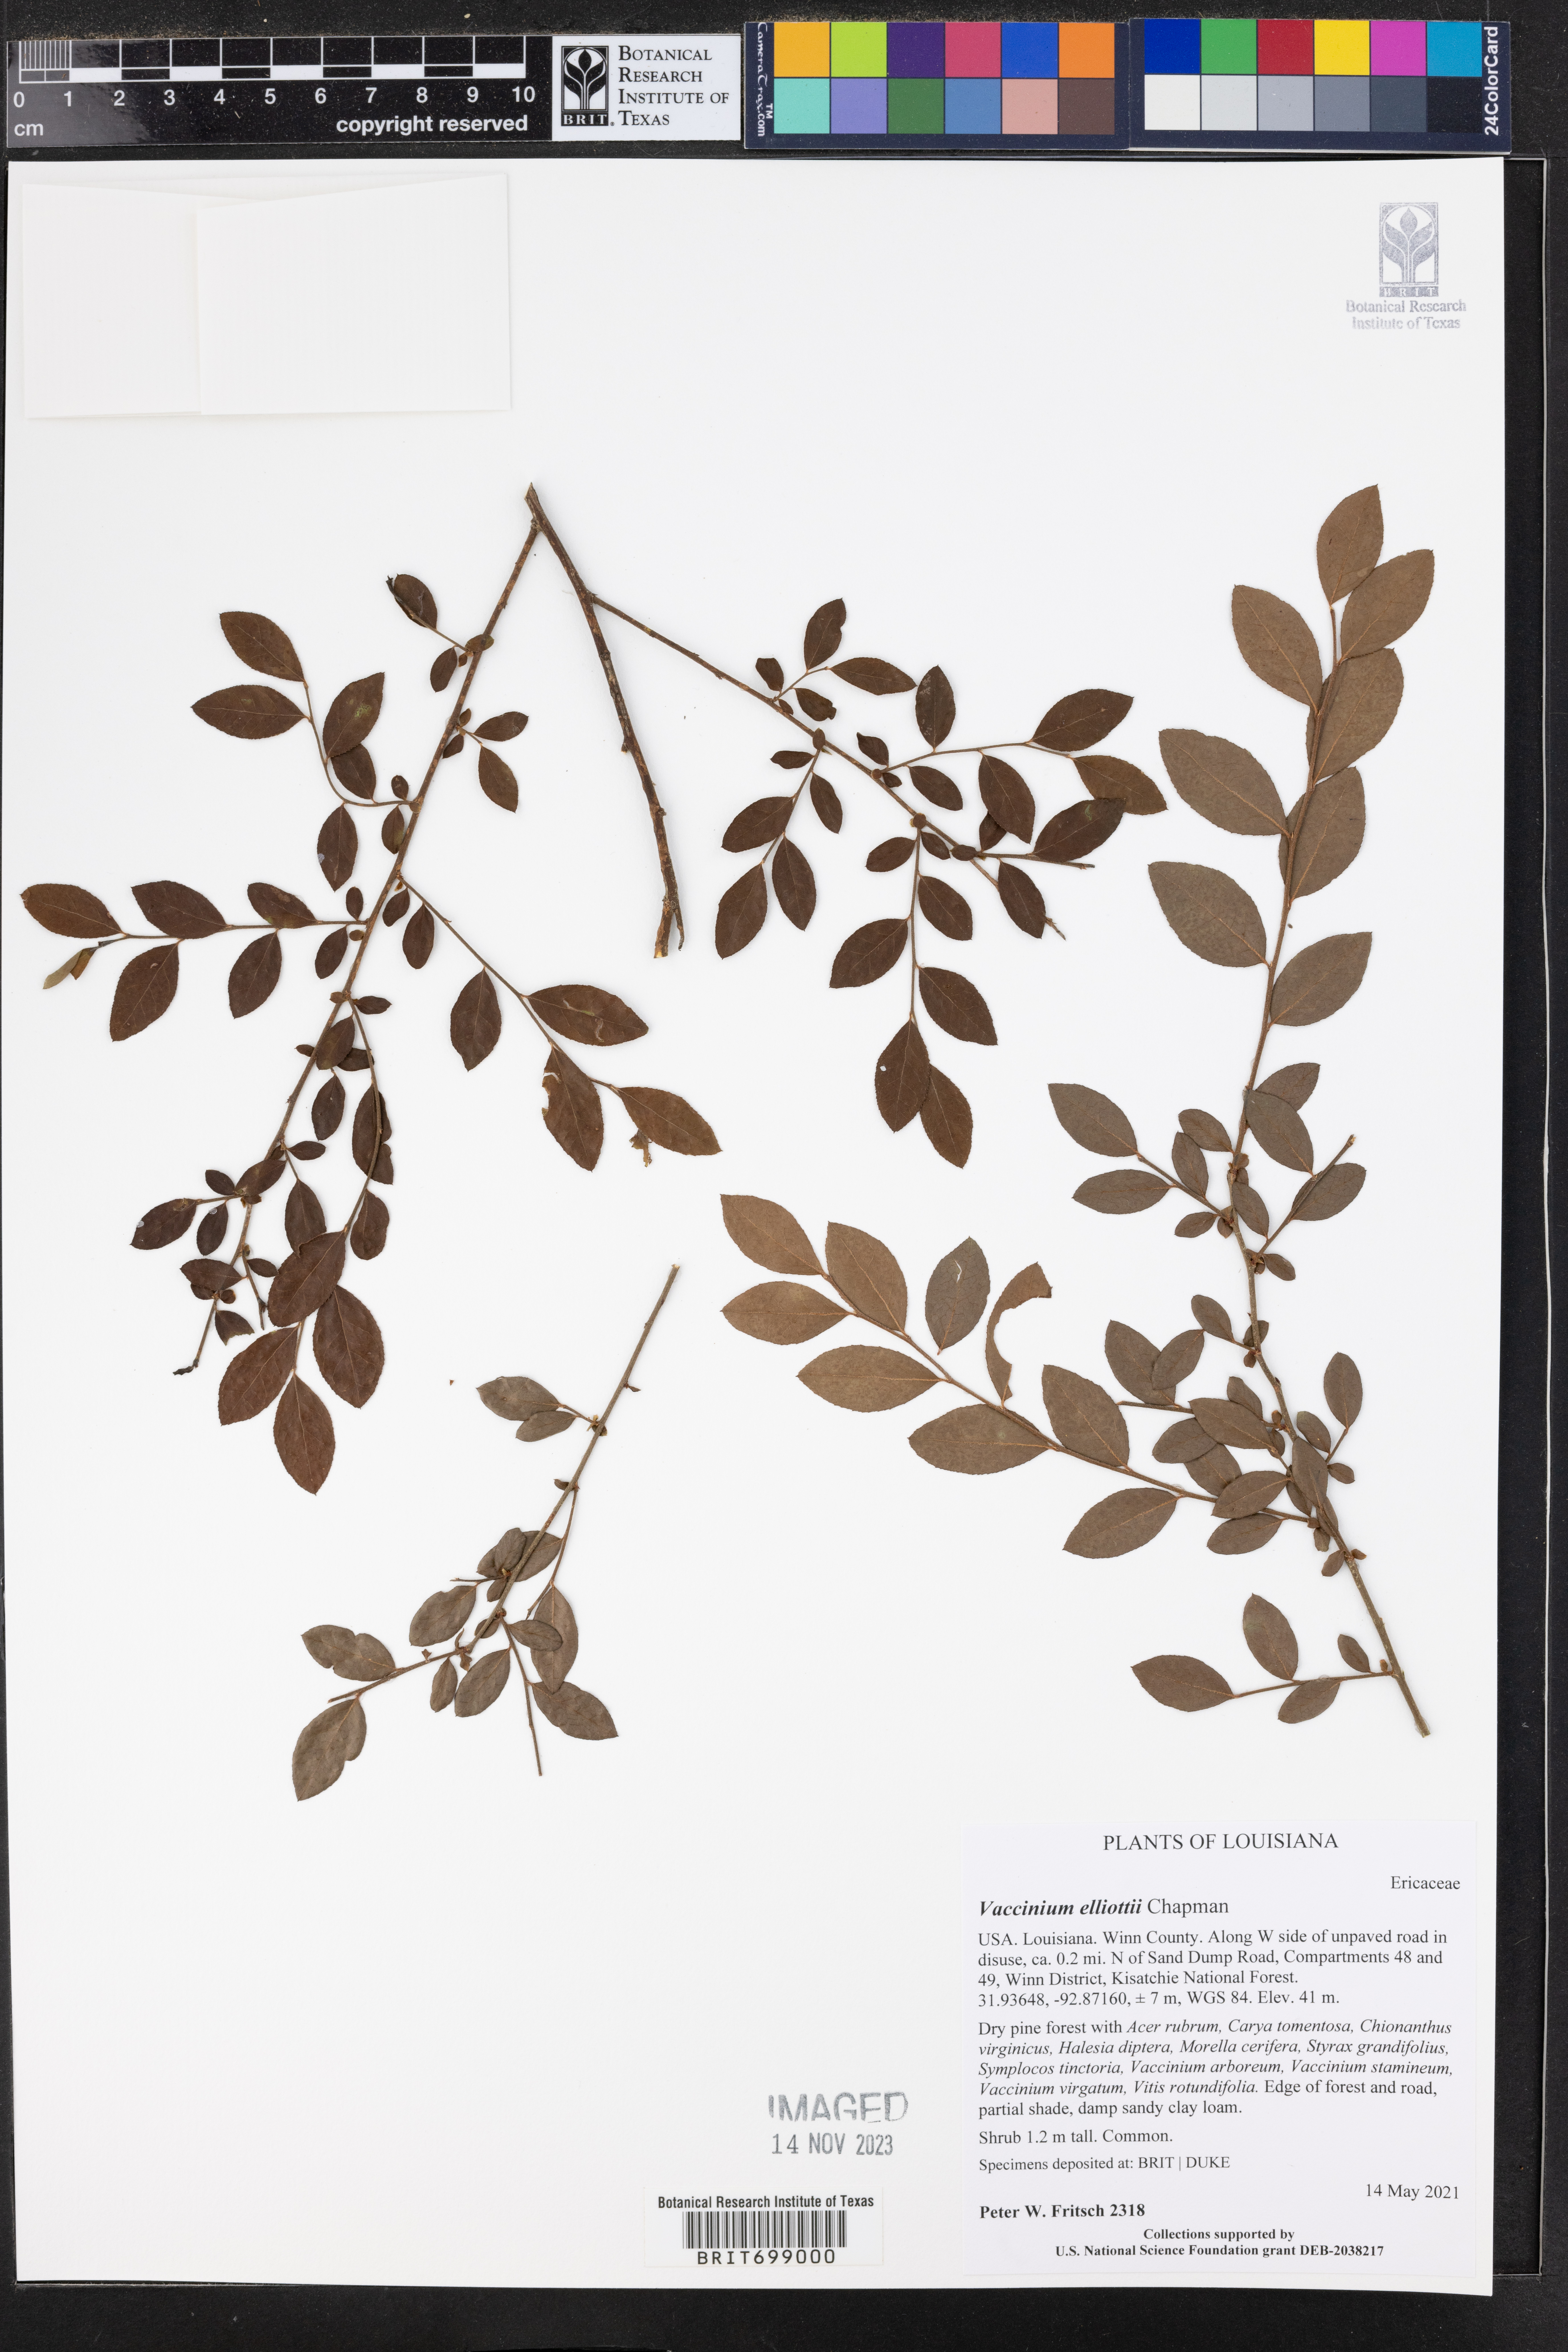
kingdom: Plantae
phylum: Tracheophyta
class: Magnoliopsida
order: Ericales
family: Ericaceae
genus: Vaccinium
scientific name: Vaccinium corymbosum
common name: Blueberry
